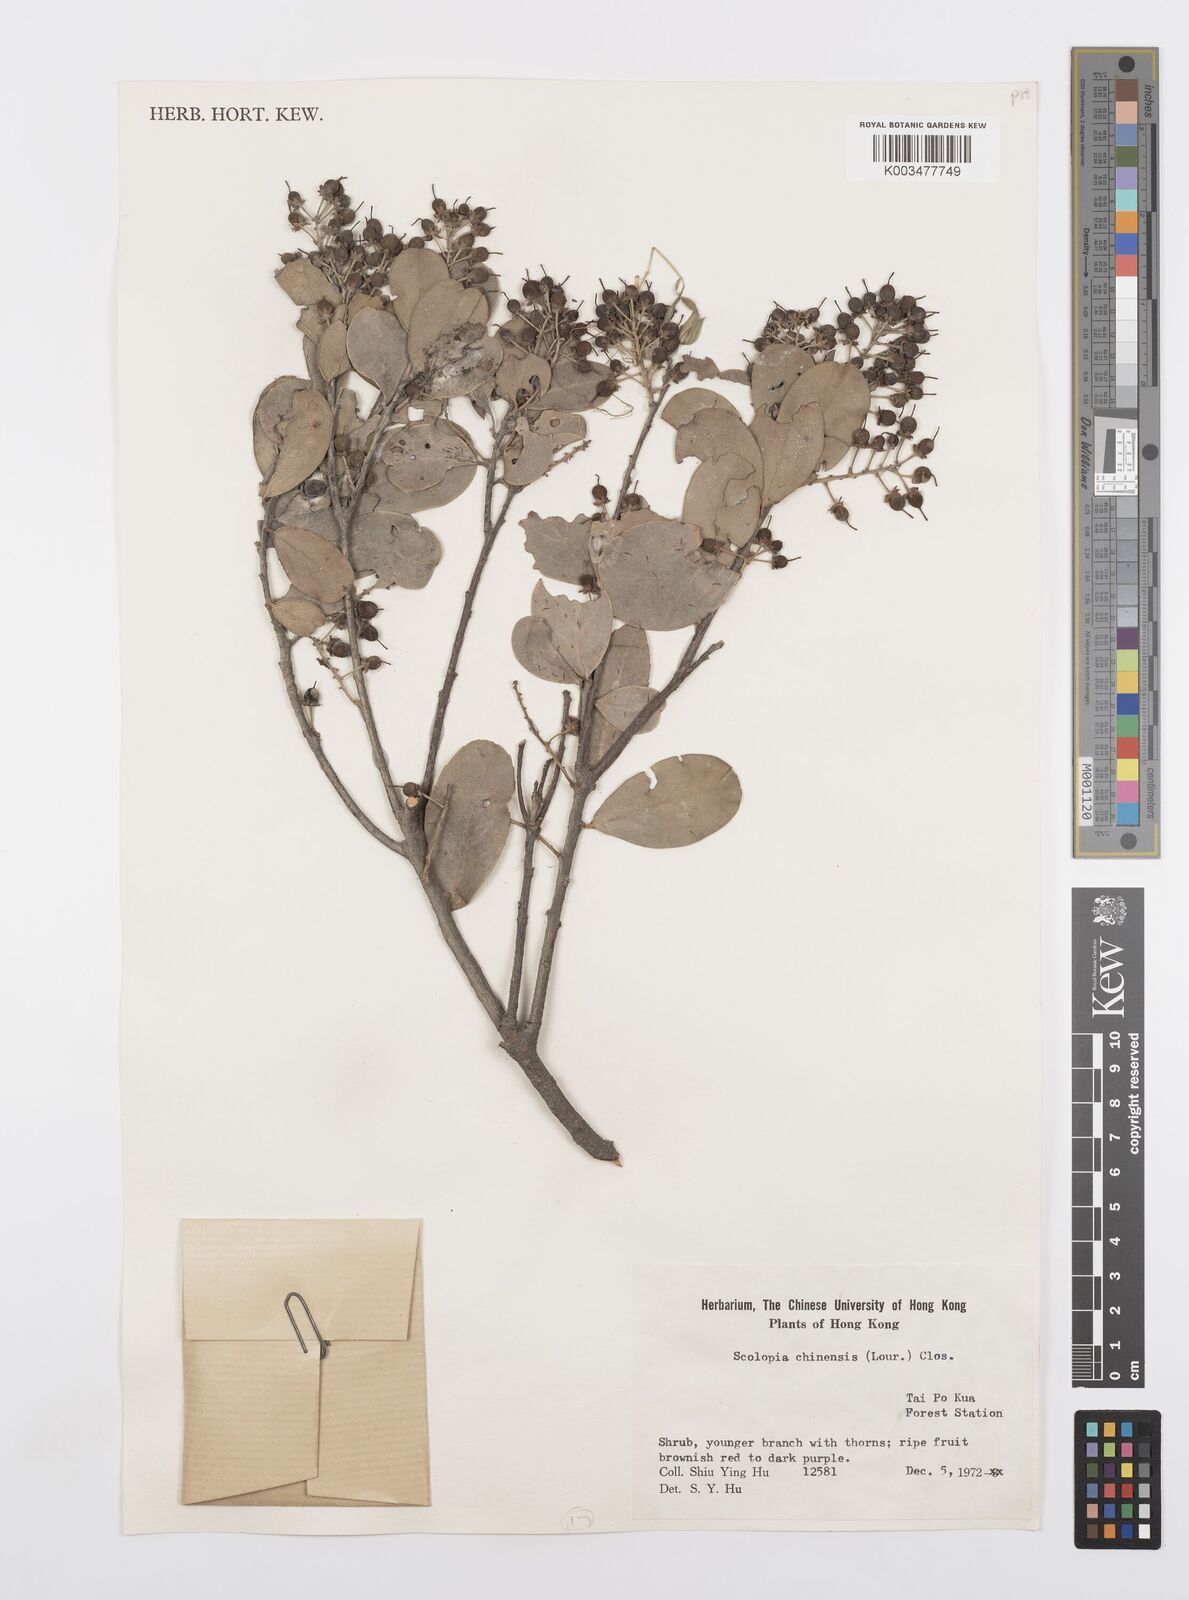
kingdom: Plantae
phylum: Tracheophyta
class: Magnoliopsida
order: Malpighiales
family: Salicaceae
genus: Scolopia
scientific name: Scolopia chinensis
